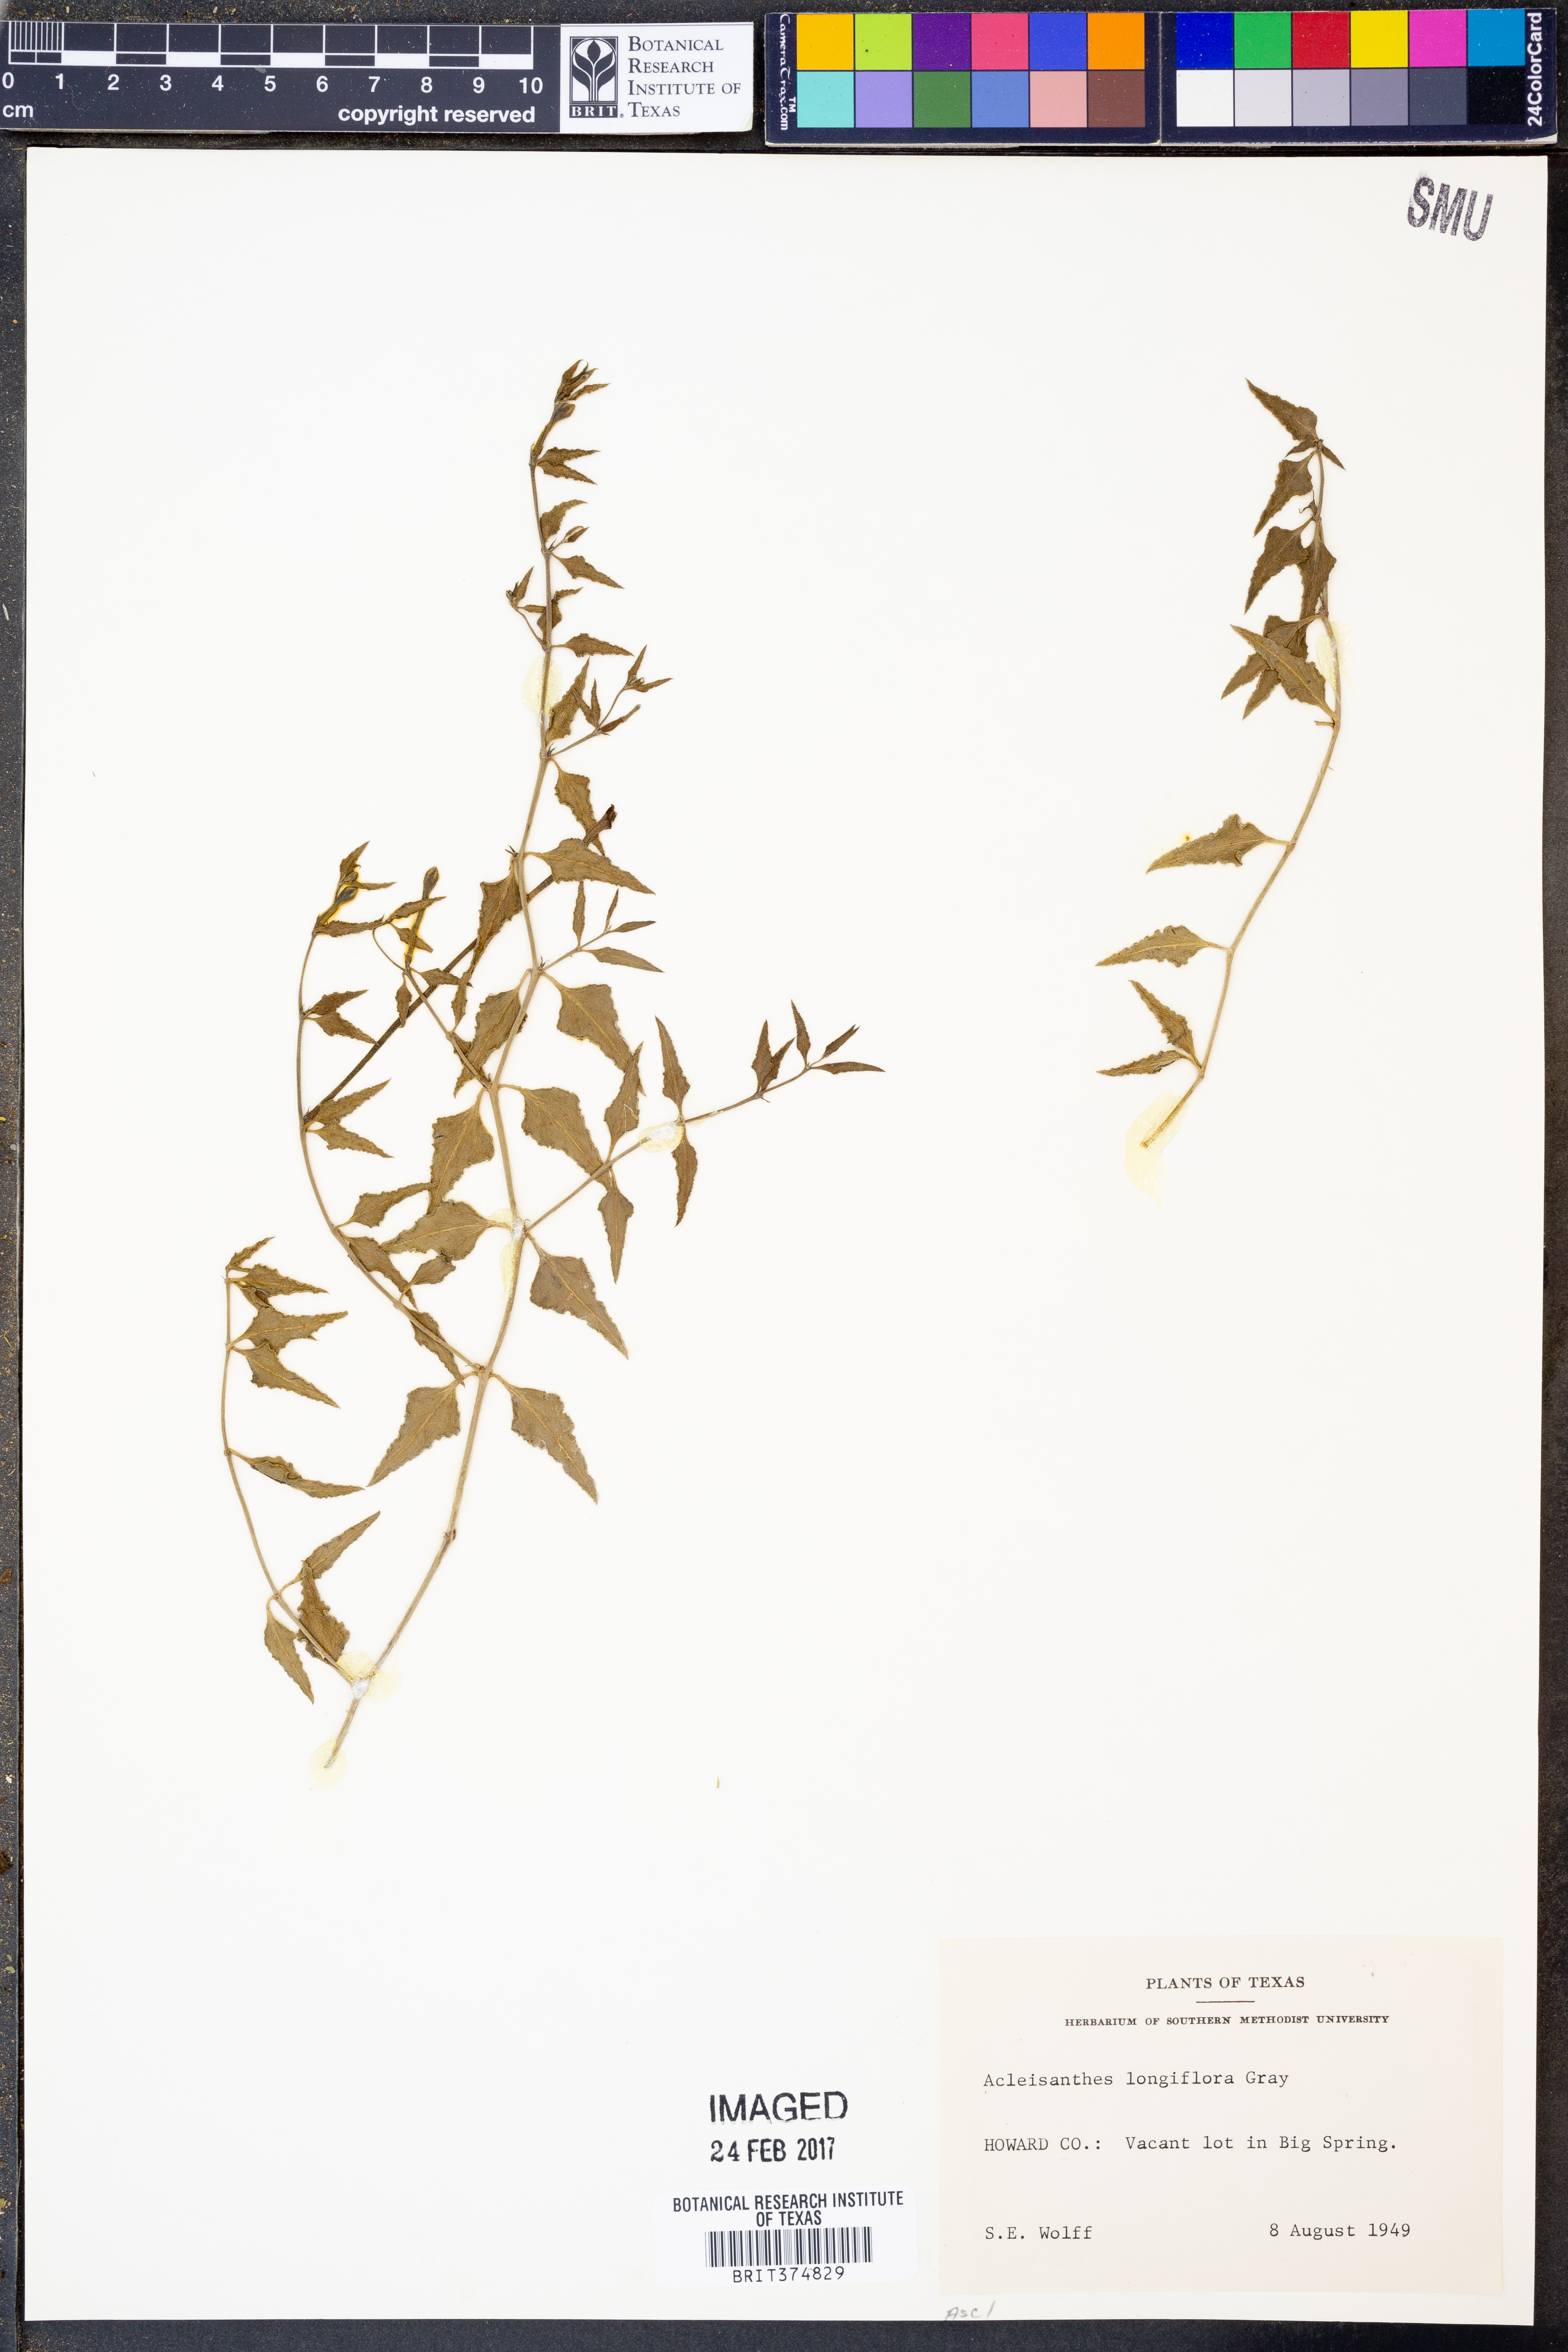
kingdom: Plantae
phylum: Tracheophyta
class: Magnoliopsida
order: Caryophyllales
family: Nyctaginaceae
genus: Acleisanthes
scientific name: Acleisanthes longiflora
